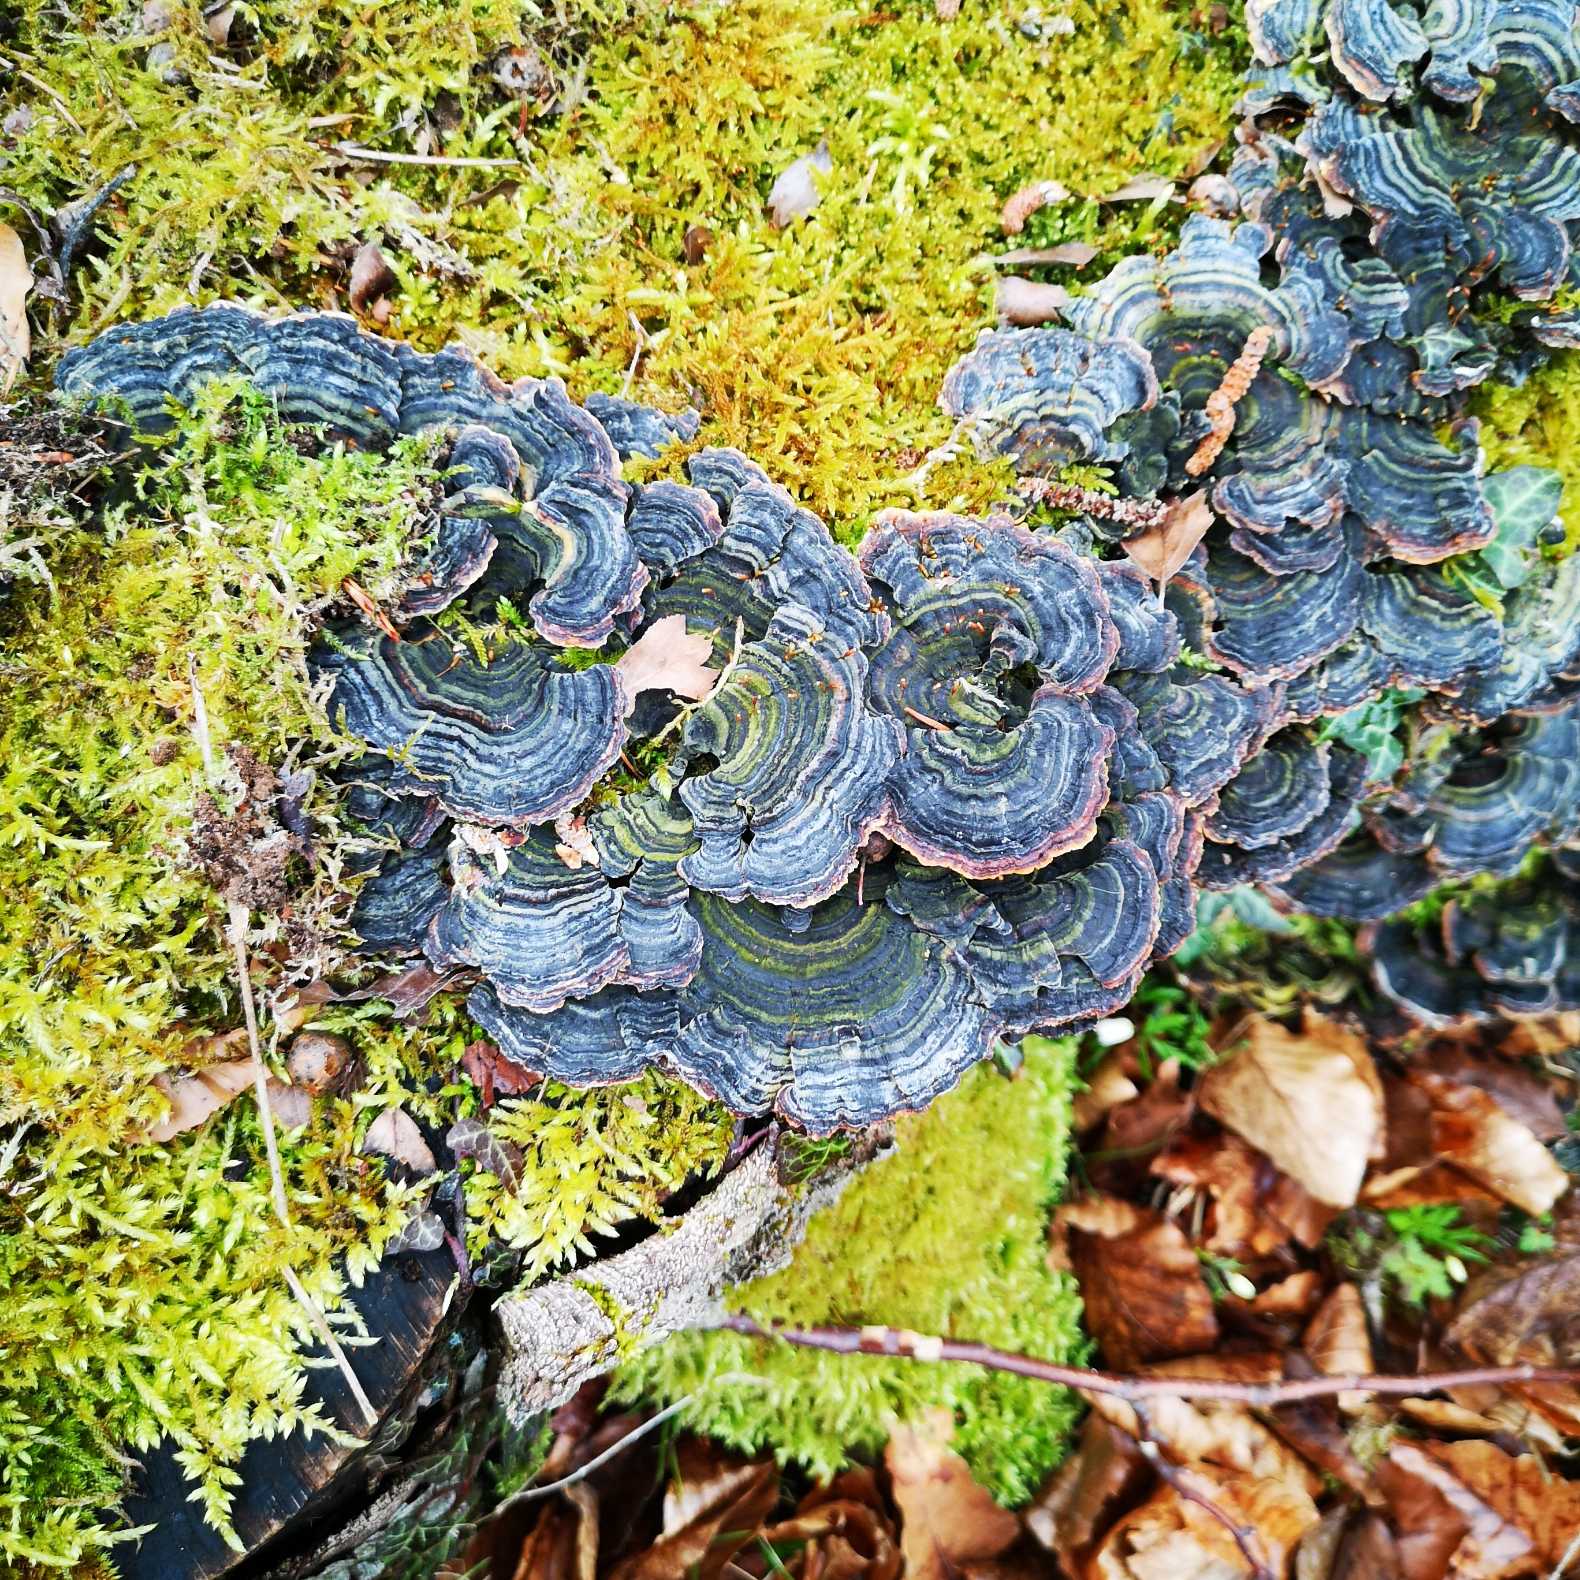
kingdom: Fungi
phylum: Basidiomycota
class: Agaricomycetes
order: Polyporales
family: Polyporaceae
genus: Trametes
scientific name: Trametes versicolor
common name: Broget læderporesvamp
